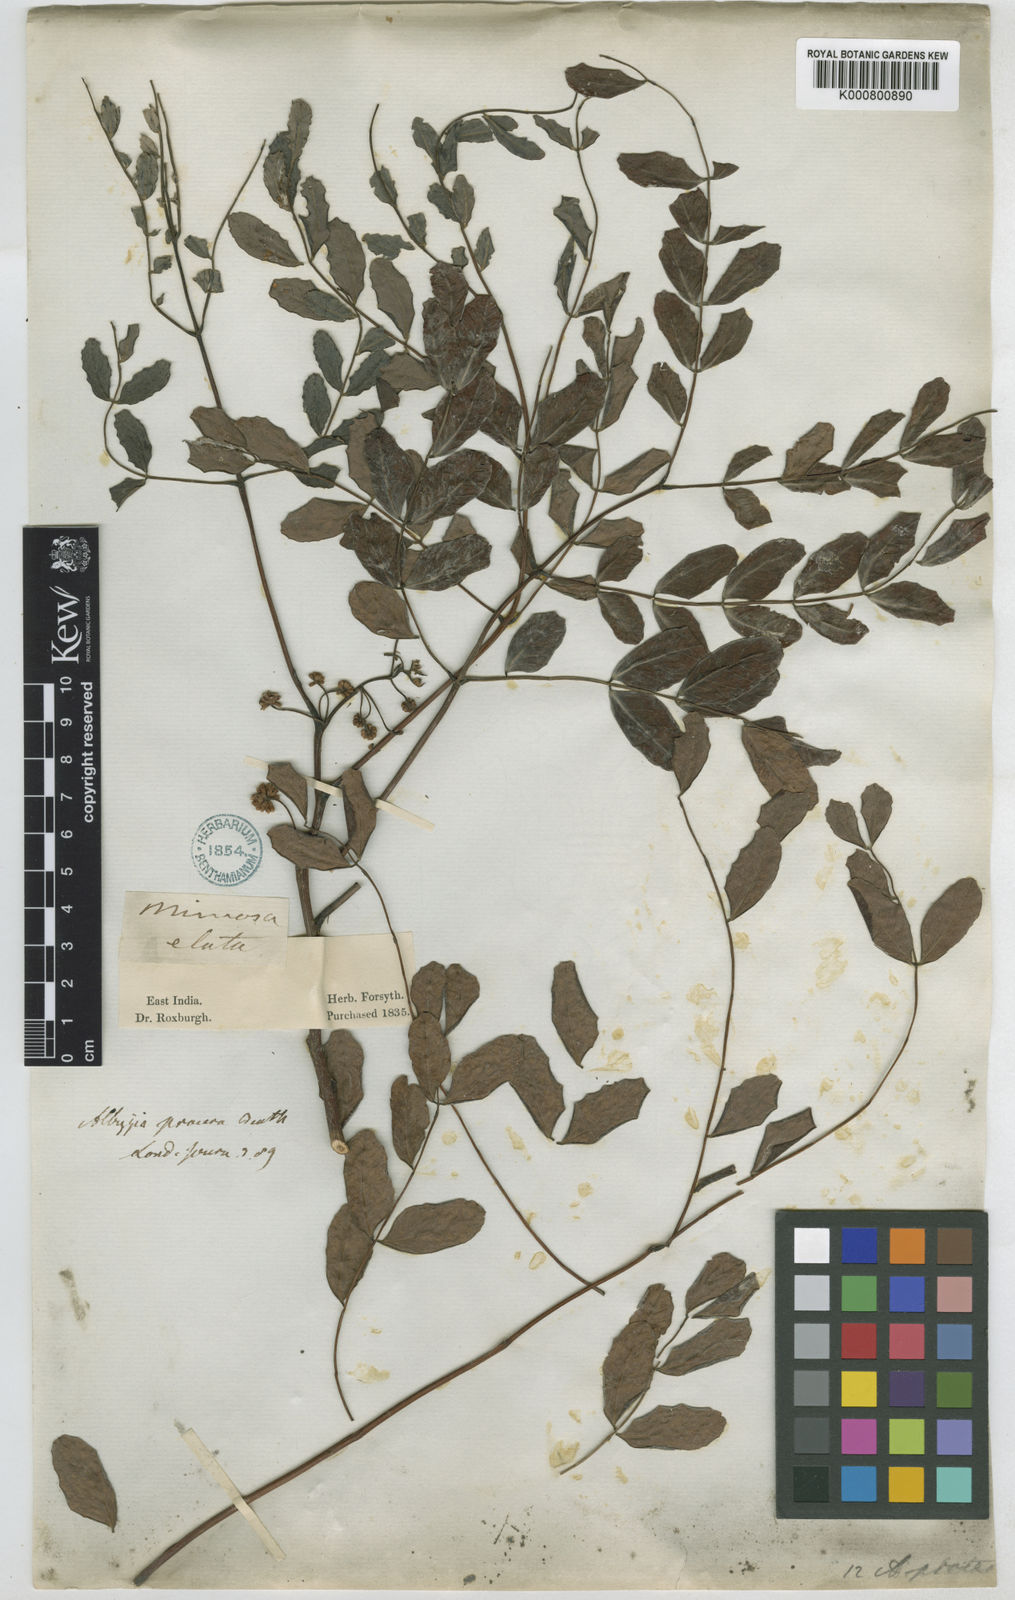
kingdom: Plantae
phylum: Tracheophyta
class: Magnoliopsida
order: Fabales
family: Fabaceae
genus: Albizia
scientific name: Albizia procera
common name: Tall albizia
